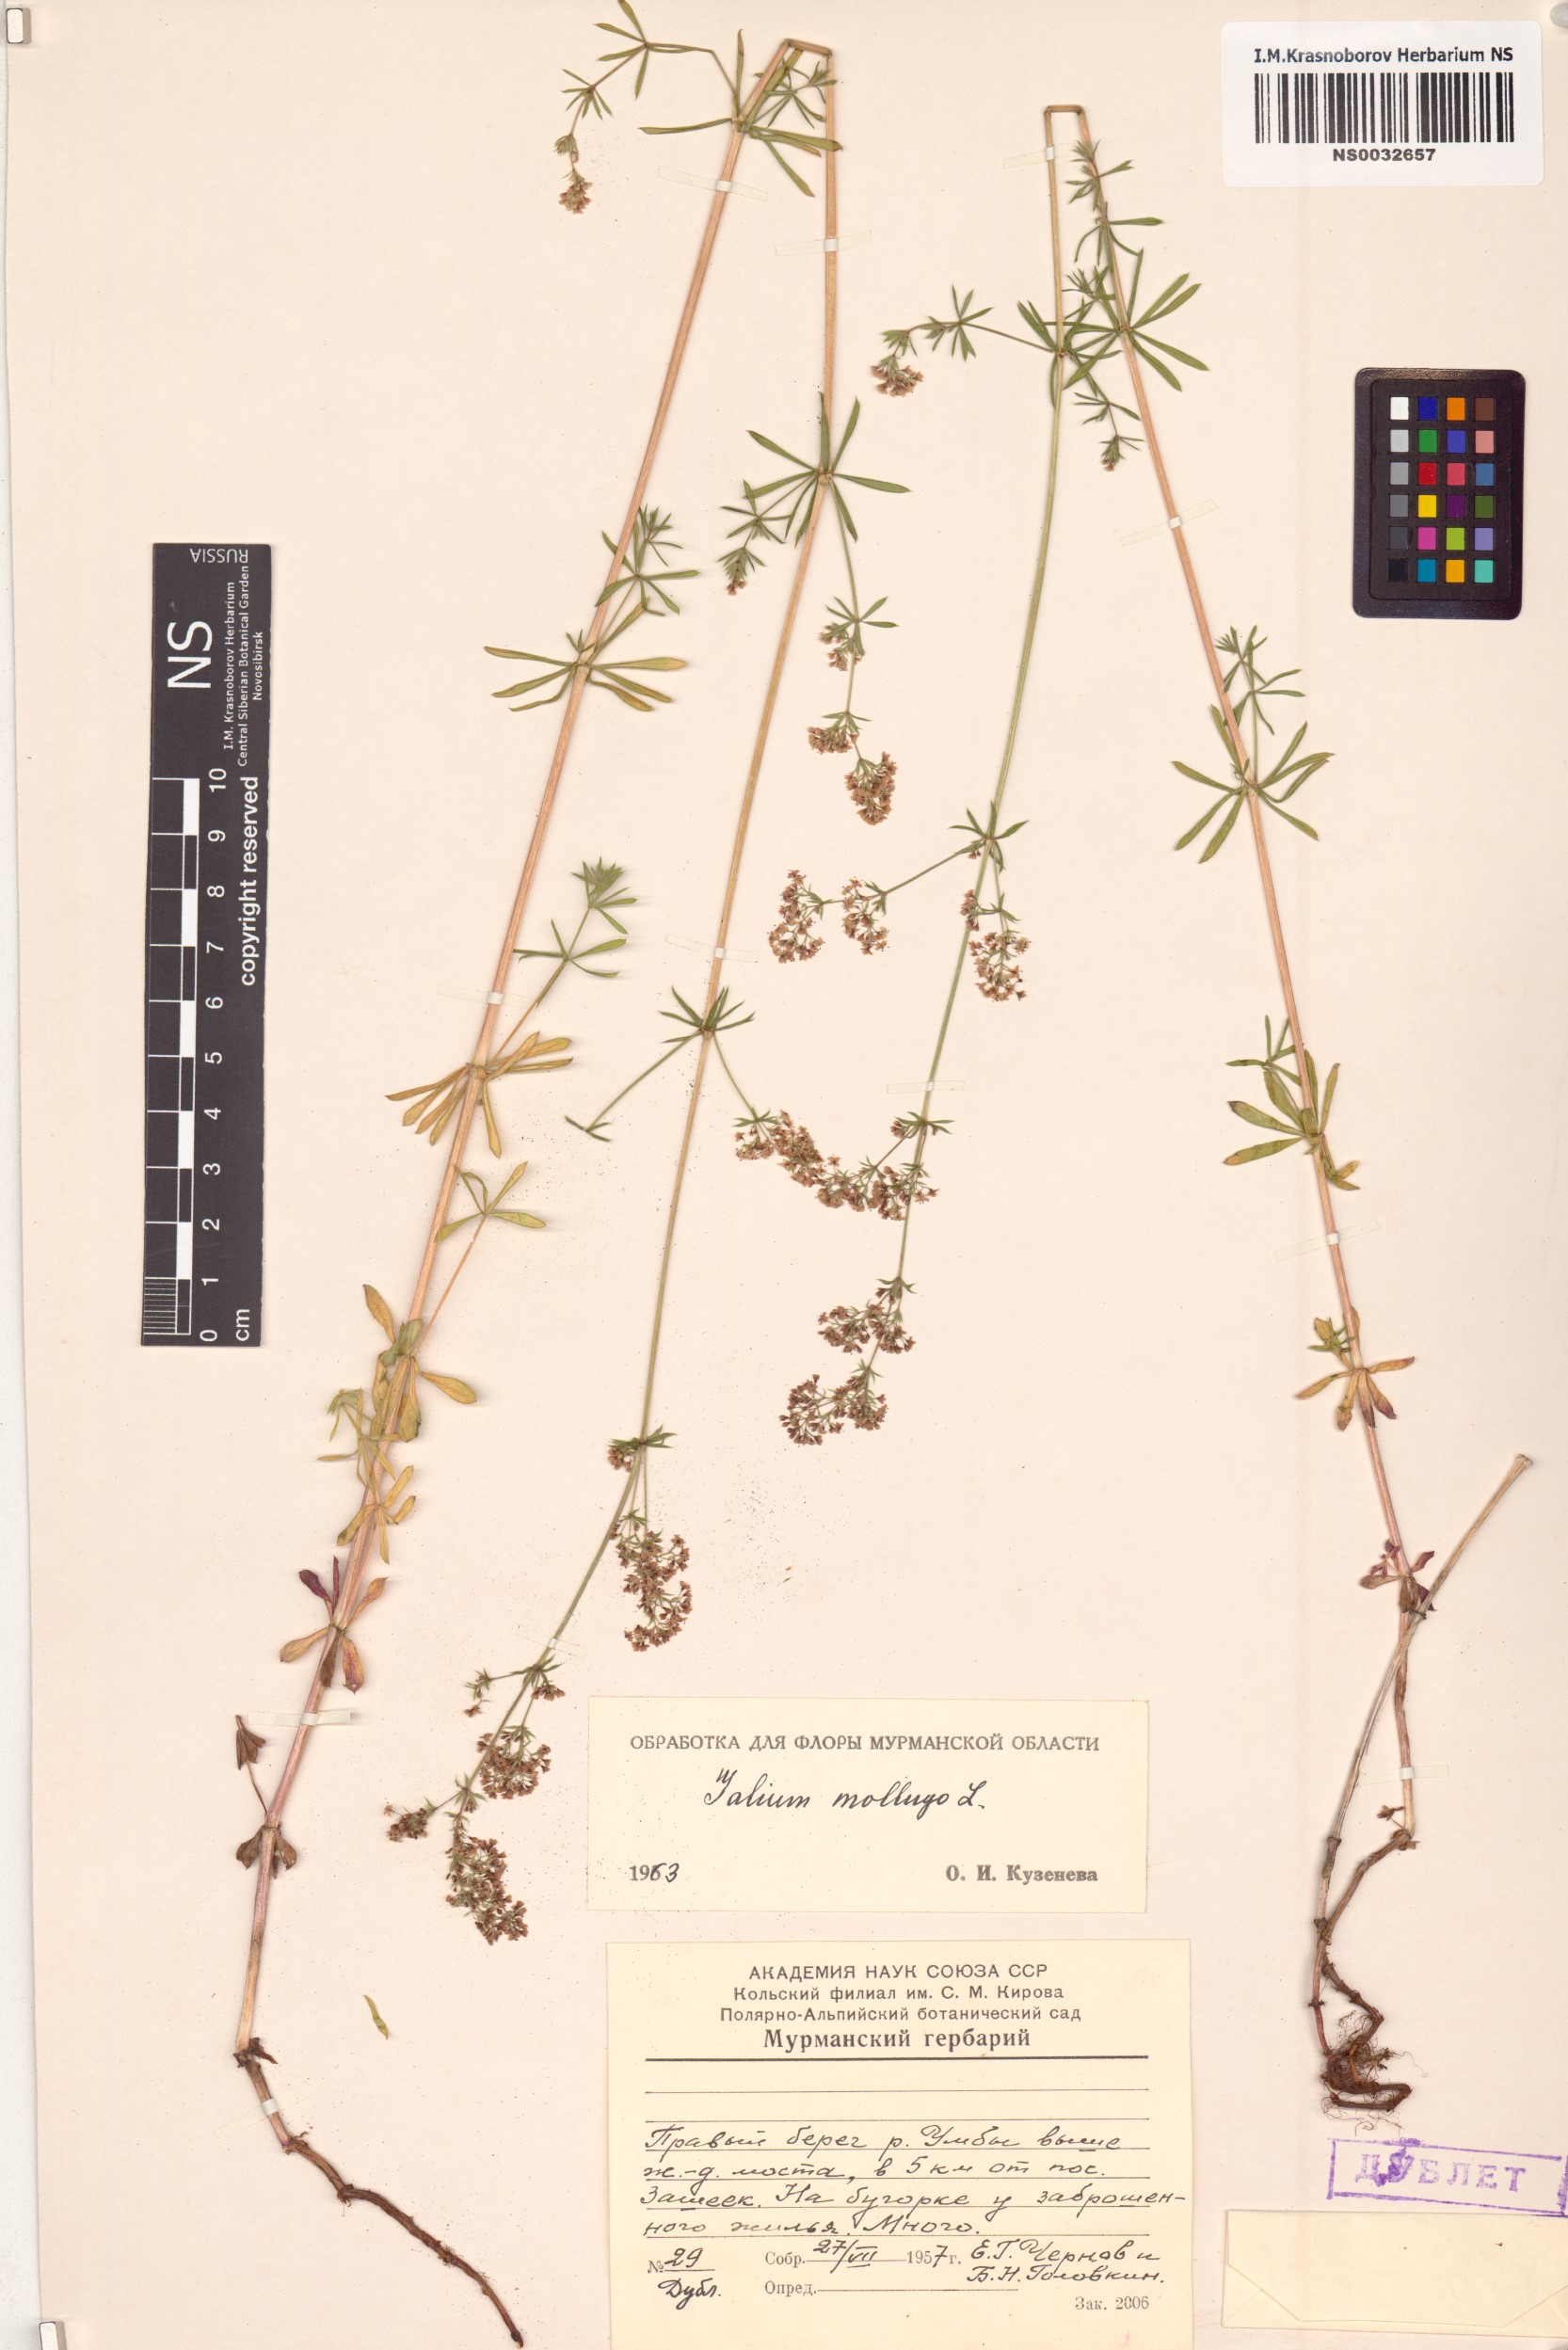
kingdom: Plantae
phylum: Tracheophyta
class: Magnoliopsida
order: Gentianales
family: Rubiaceae
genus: Galium
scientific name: Galium mollugo
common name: Hedge bedstraw
